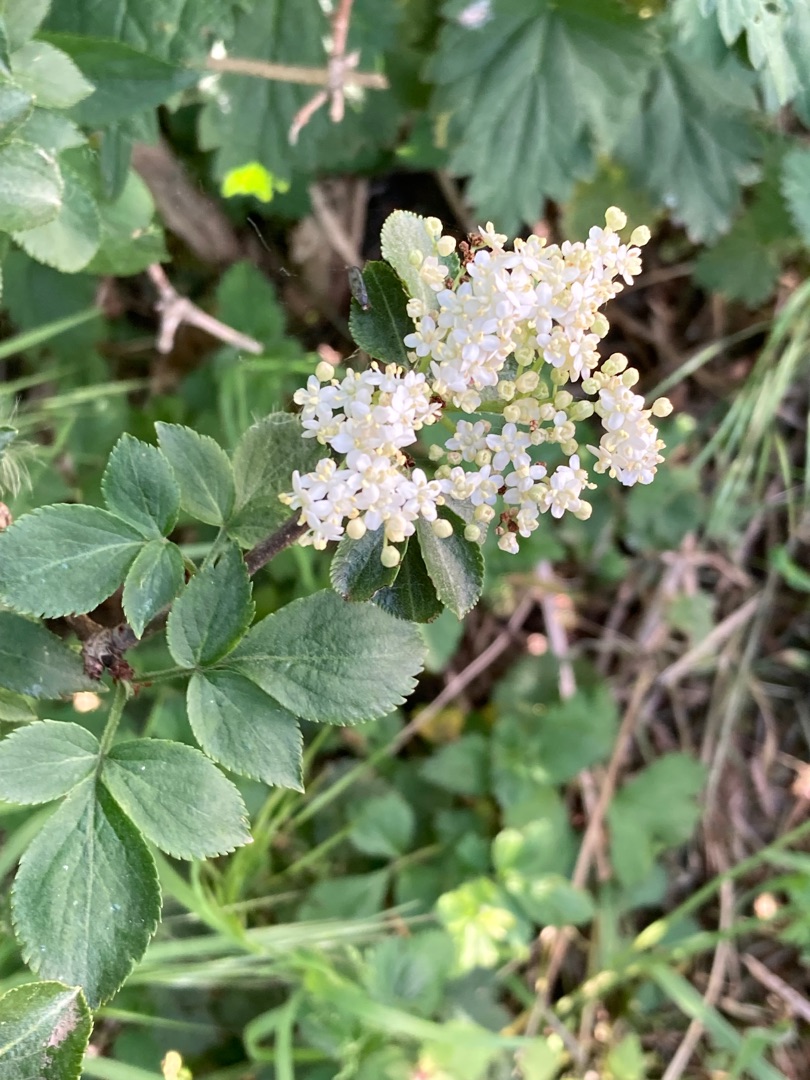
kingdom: Plantae
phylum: Tracheophyta
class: Magnoliopsida
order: Dipsacales
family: Viburnaceae
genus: Sambucus
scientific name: Sambucus nigra
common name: Almindelig hyld
